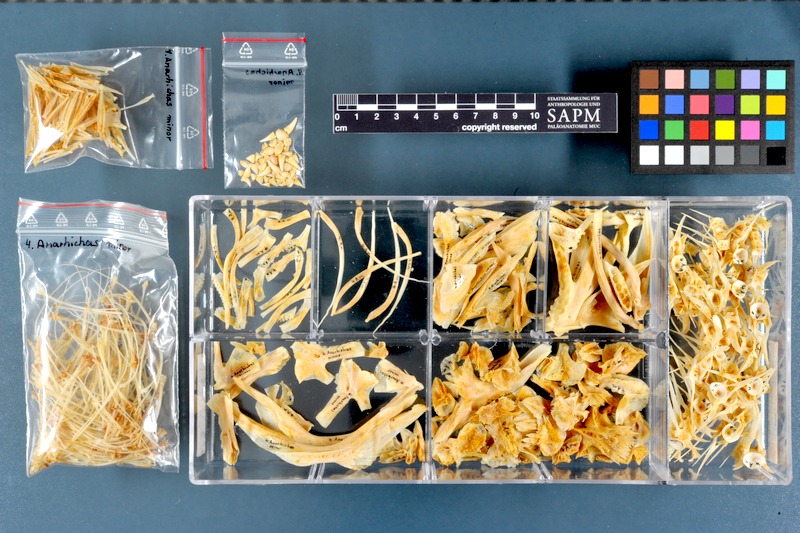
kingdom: Animalia
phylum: Chordata
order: Perciformes
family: Anarhichadidae
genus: Anarhichas
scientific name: Anarhichas minor
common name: Spotted catfish
